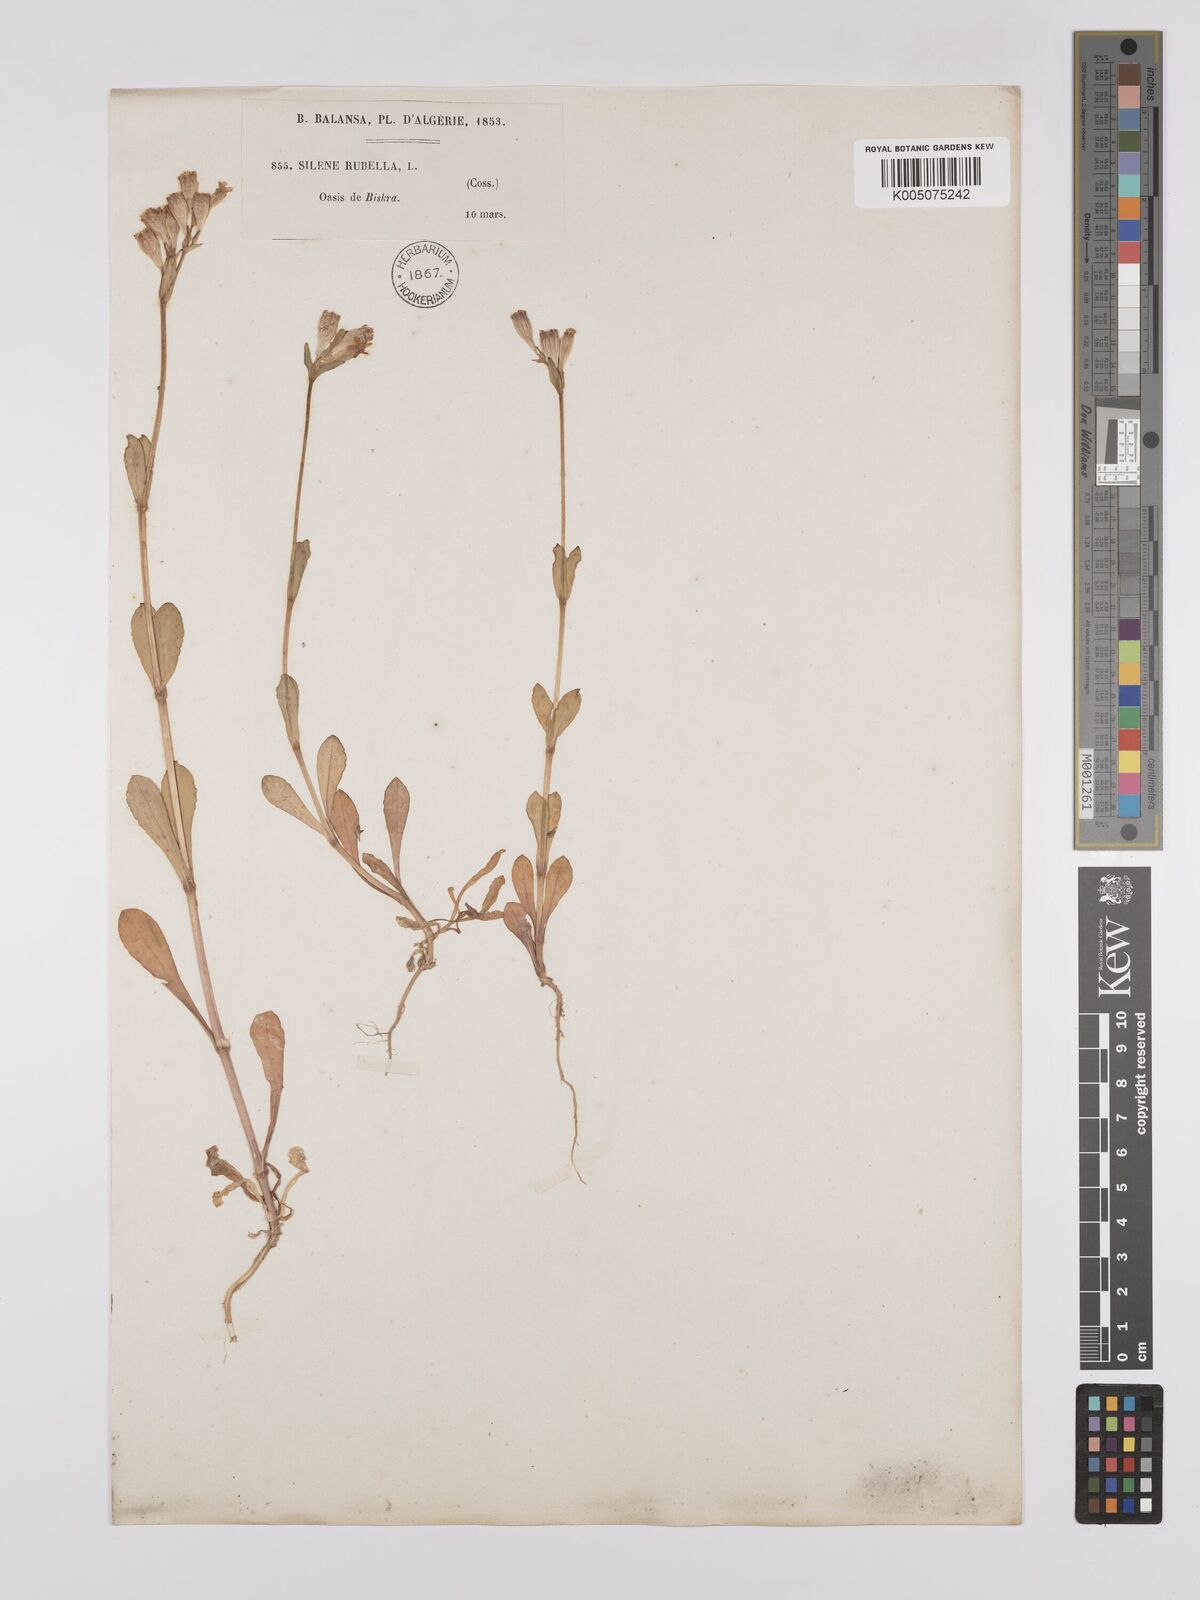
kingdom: Plantae
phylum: Tracheophyta
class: Magnoliopsida
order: Caryophyllales
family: Caryophyllaceae
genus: Silene
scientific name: Silene rubella
